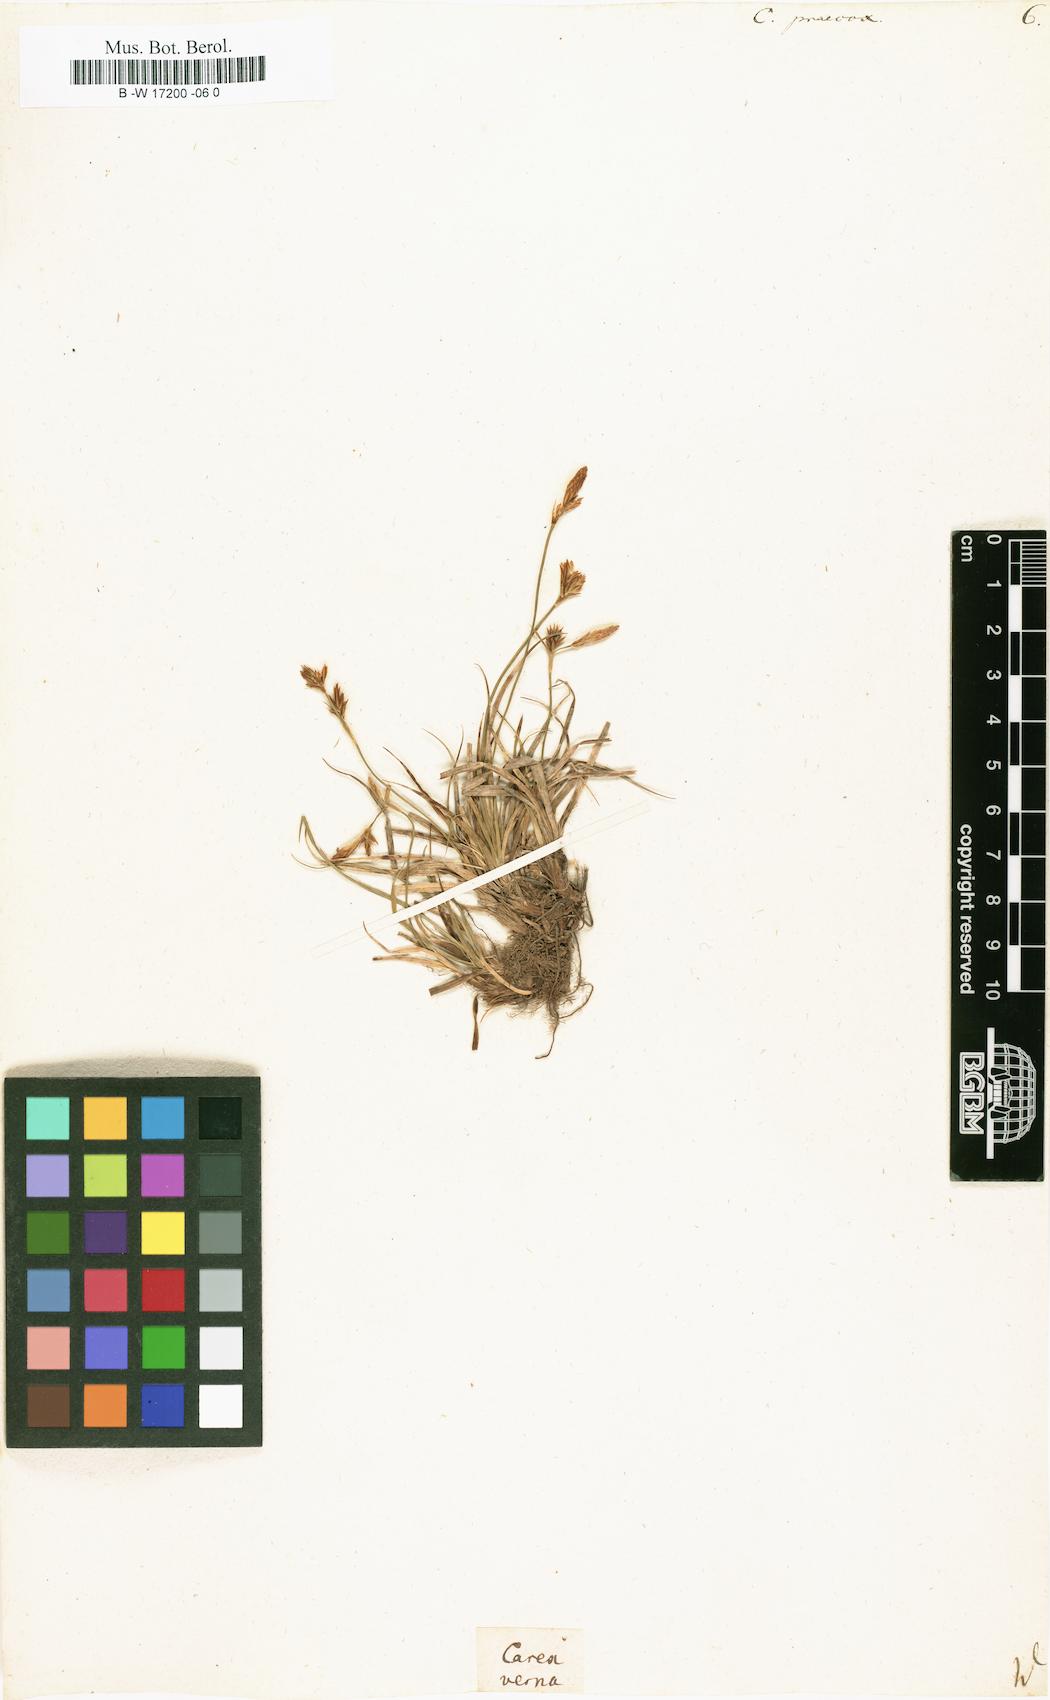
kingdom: Plantae
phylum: Tracheophyta
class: Liliopsida
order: Poales
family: Cyperaceae
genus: Carex
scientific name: Carex praecox
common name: Early sedge
